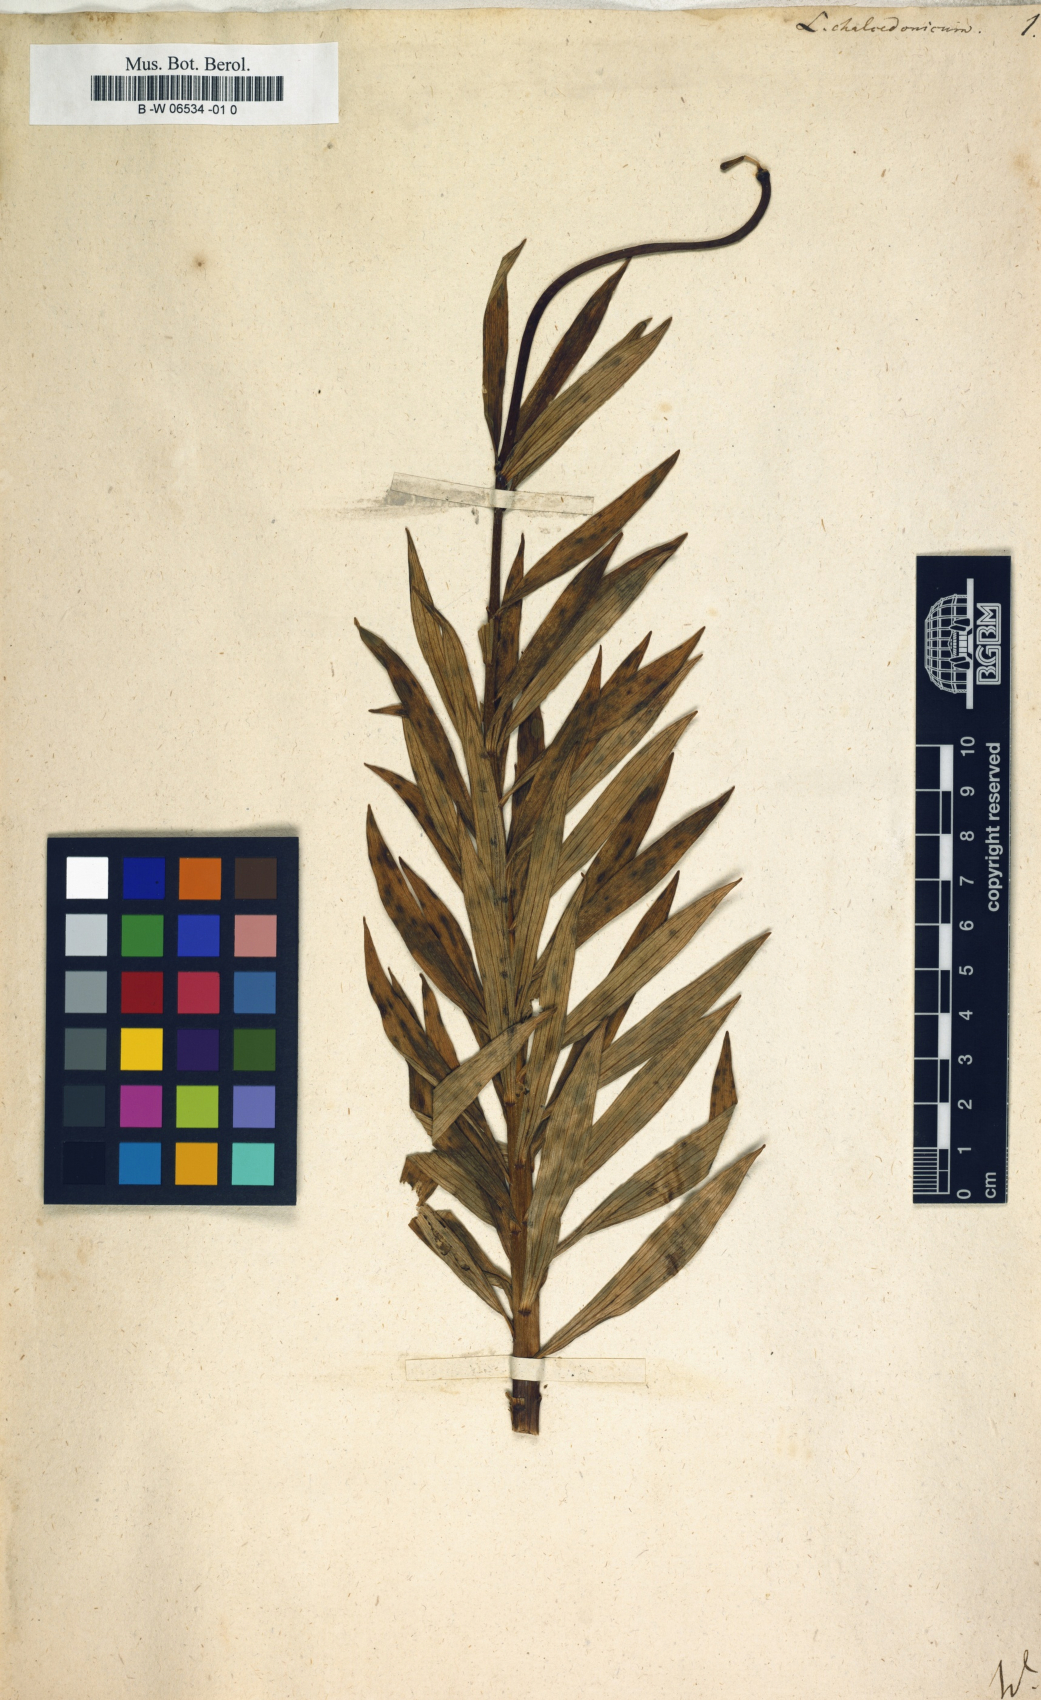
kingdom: Plantae
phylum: Tracheophyta
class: Liliopsida
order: Liliales
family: Liliaceae
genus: Lilium
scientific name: Lilium chalcedonicum
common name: Red martagon of constantinople
